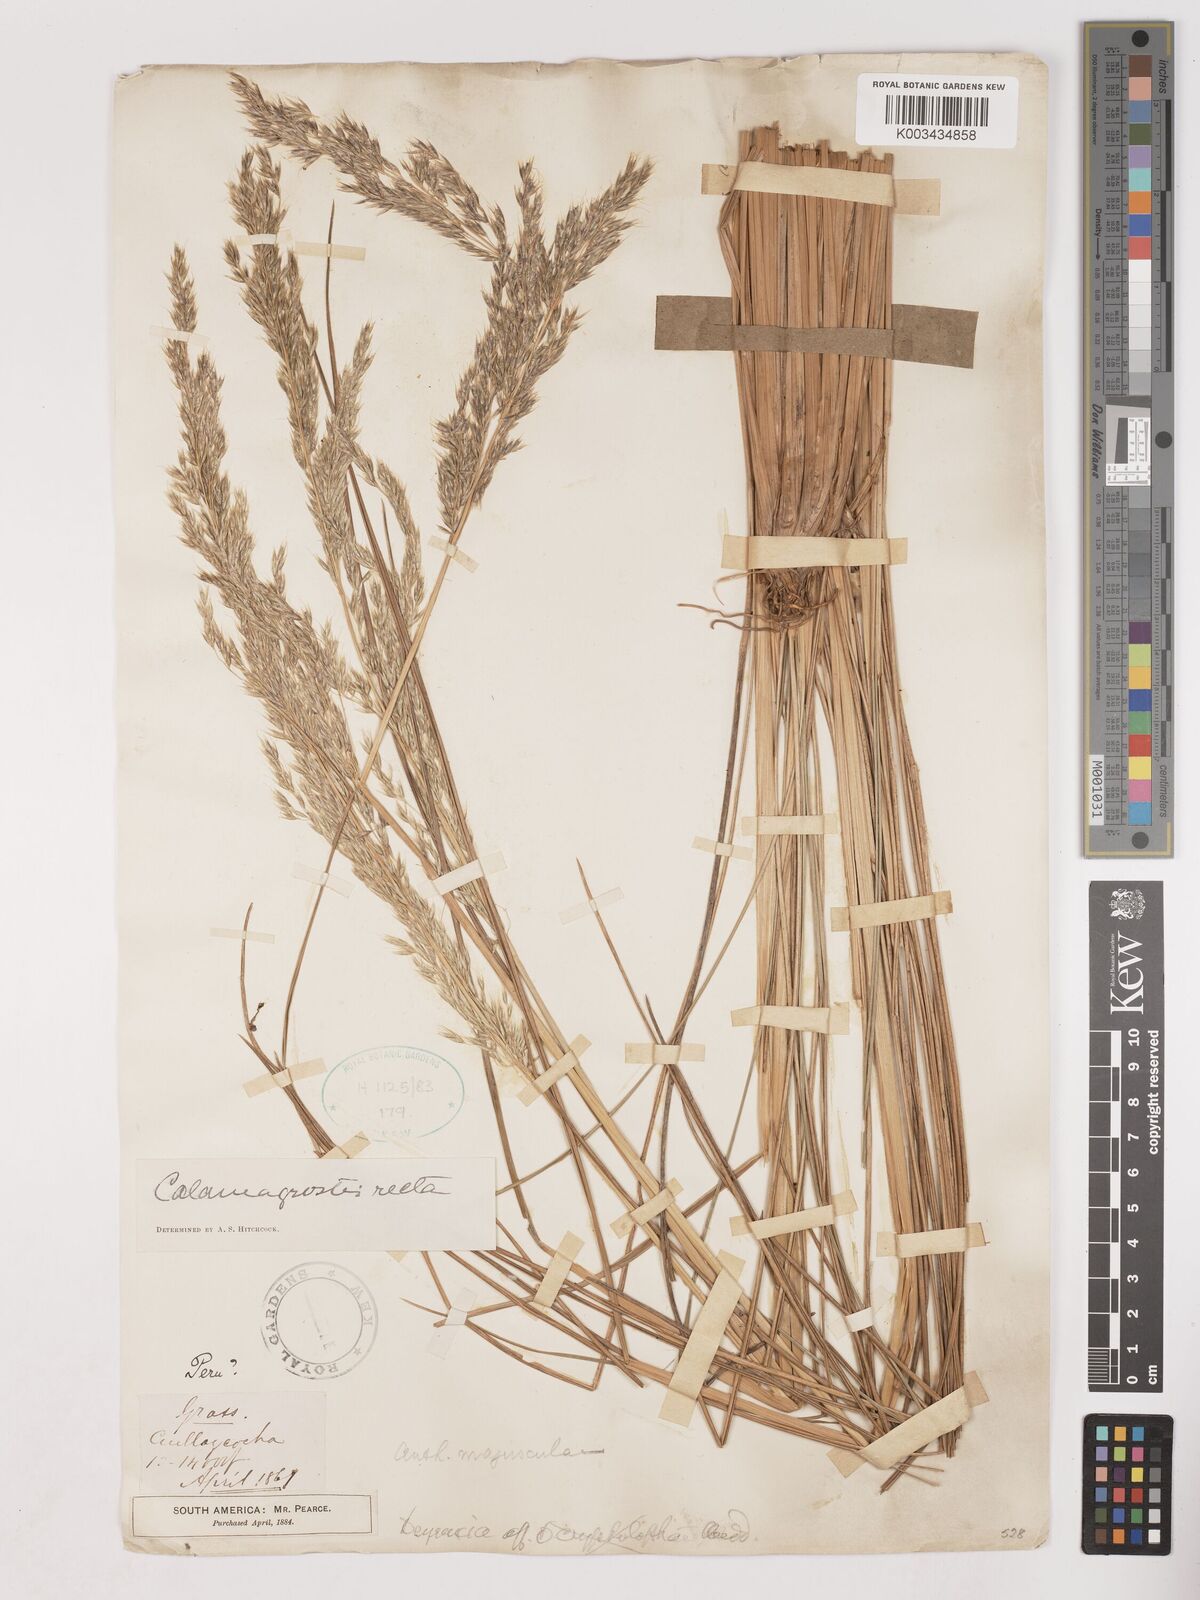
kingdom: Plantae
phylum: Tracheophyta
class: Liliopsida
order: Poales
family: Poaceae
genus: Cinnagrostis
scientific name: Cinnagrostis recta
